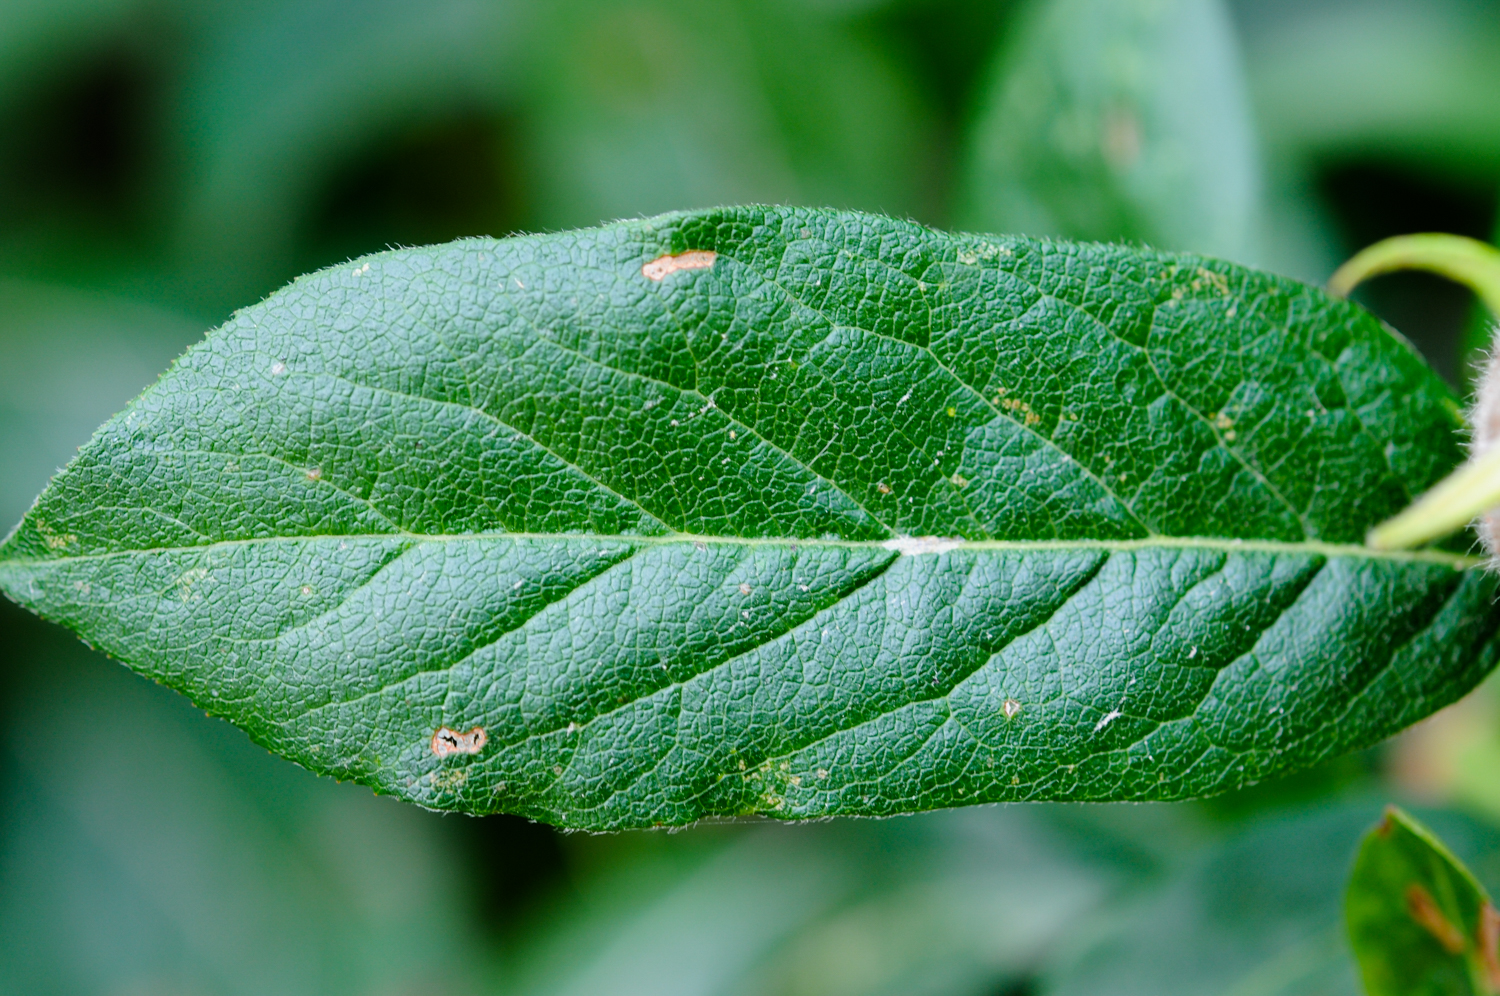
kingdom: Plantae
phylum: Tracheophyta
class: Magnoliopsida
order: Rosales
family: Rosaceae
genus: Mespilus
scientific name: Mespilus germanica
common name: Medlar
